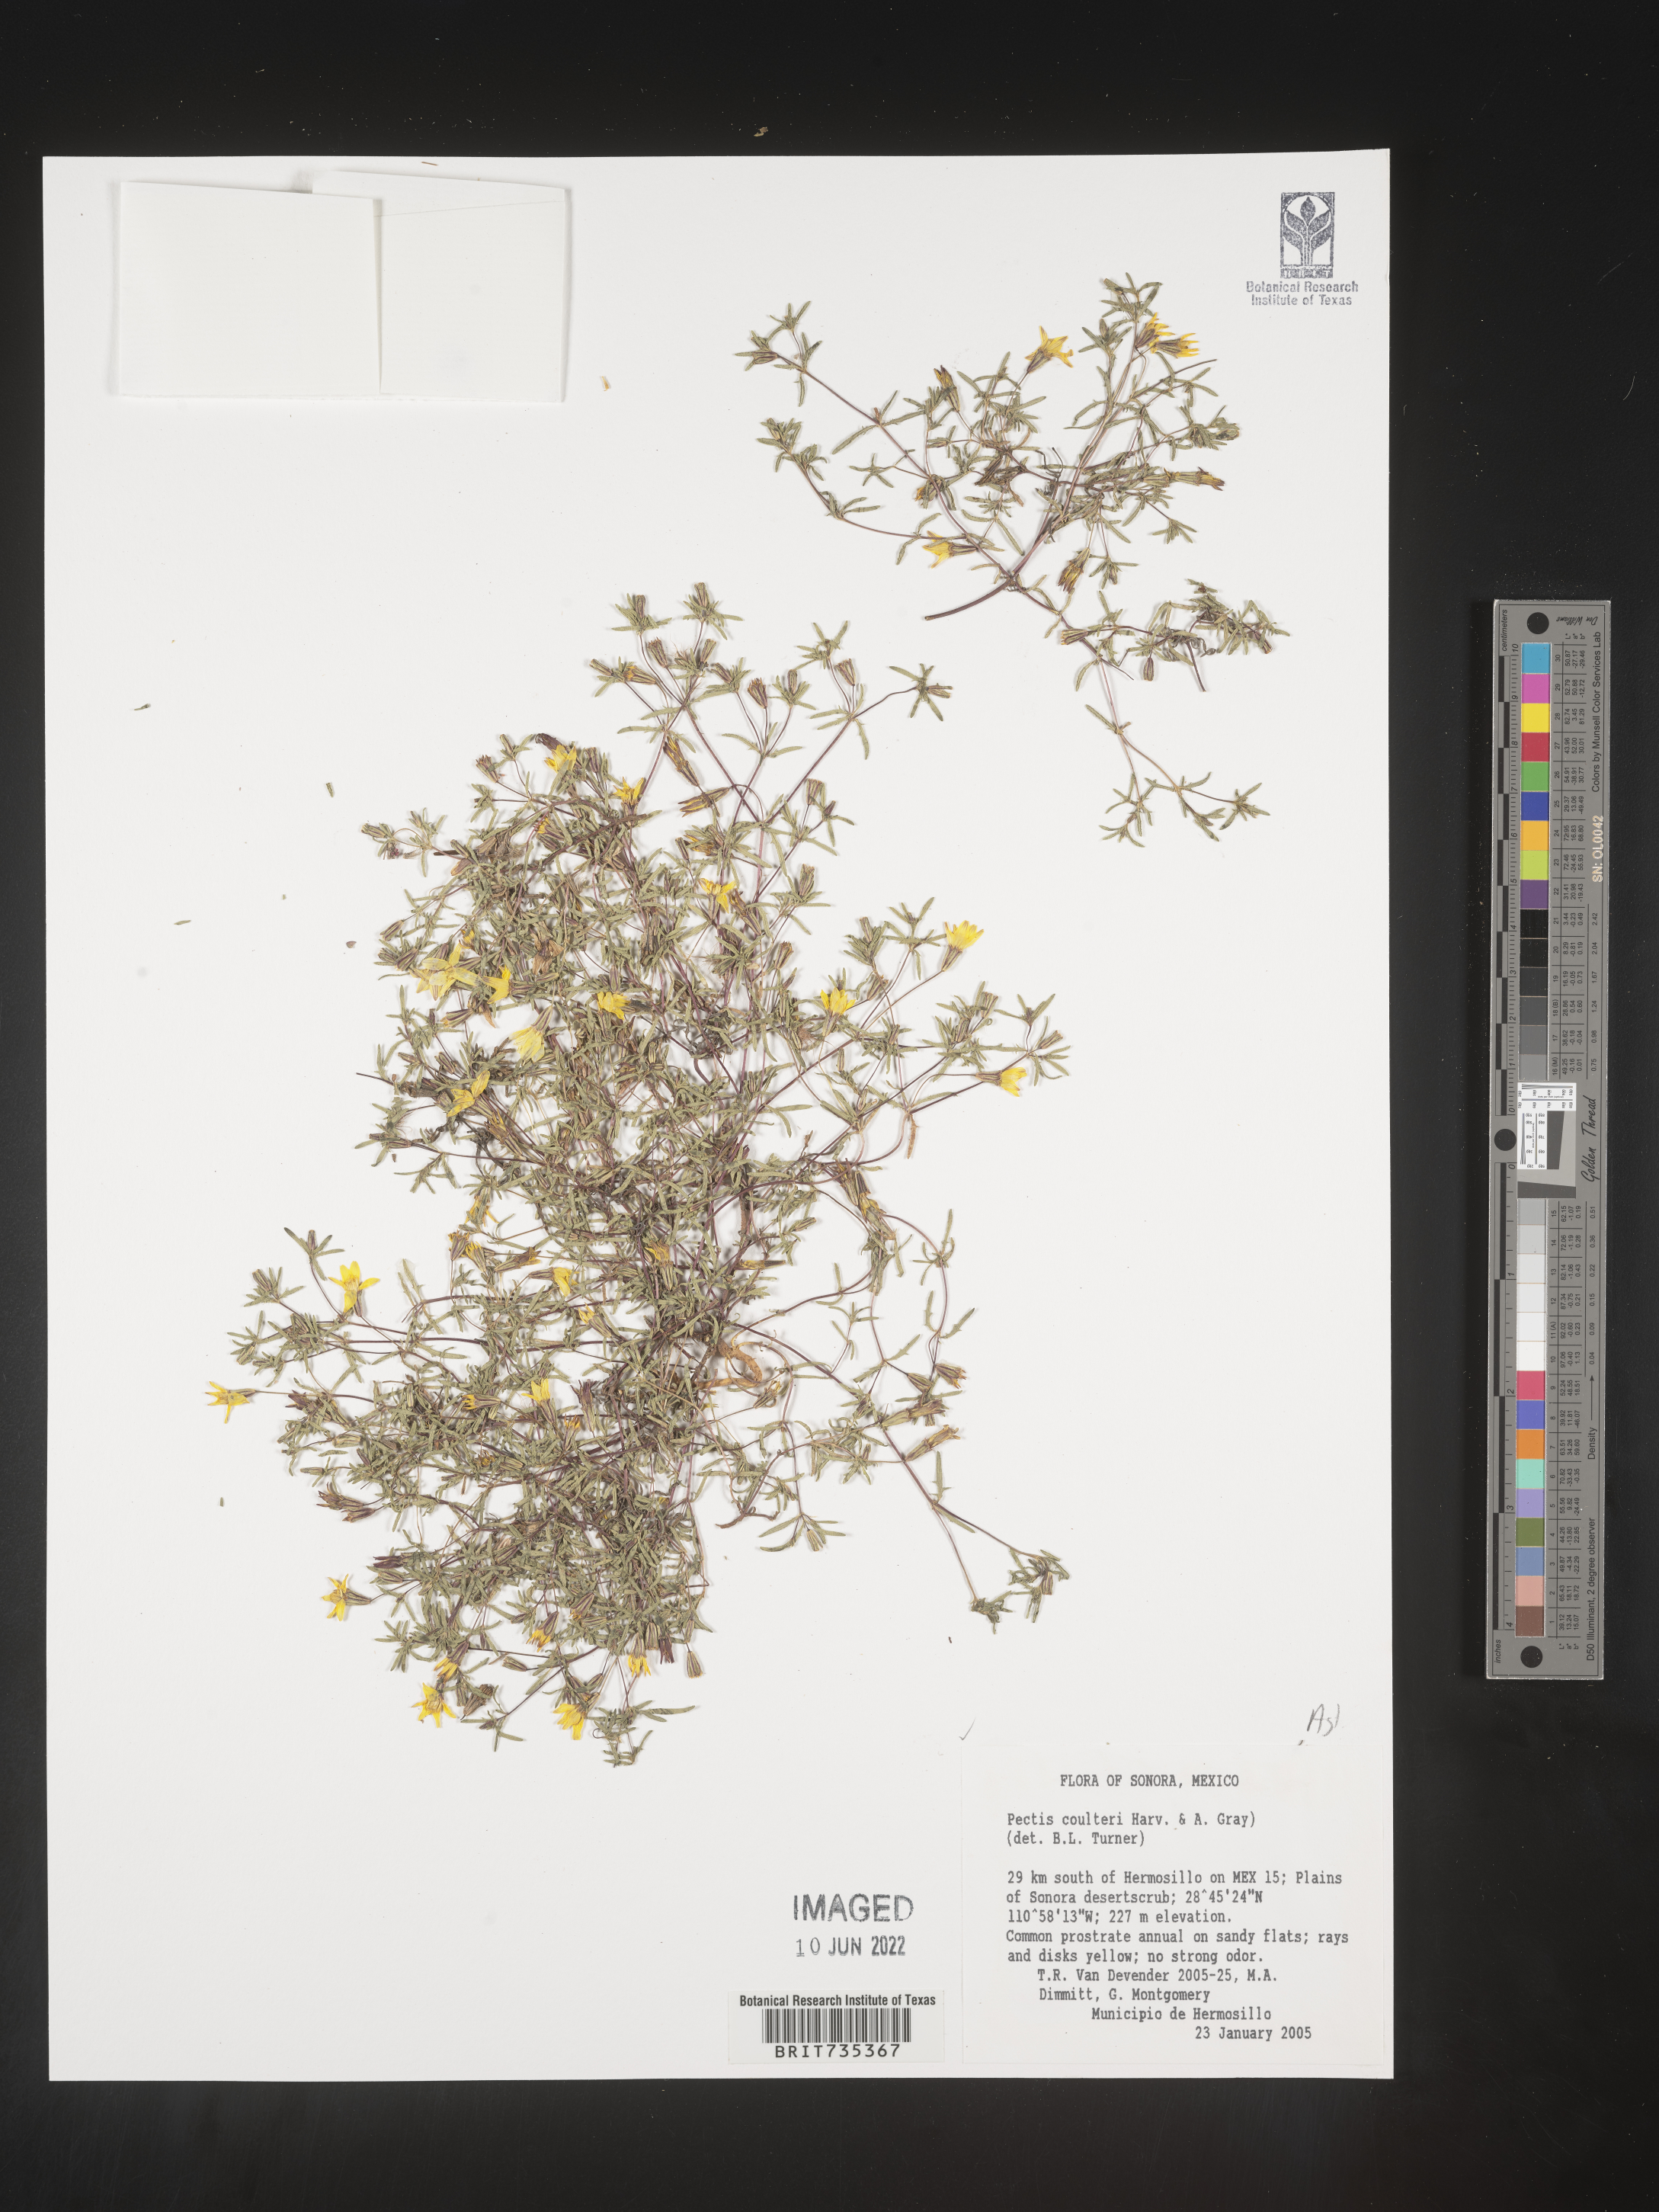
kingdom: Plantae
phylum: Tracheophyta
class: Magnoliopsida
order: Asterales
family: Asteraceae
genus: Pectis
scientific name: Pectis
